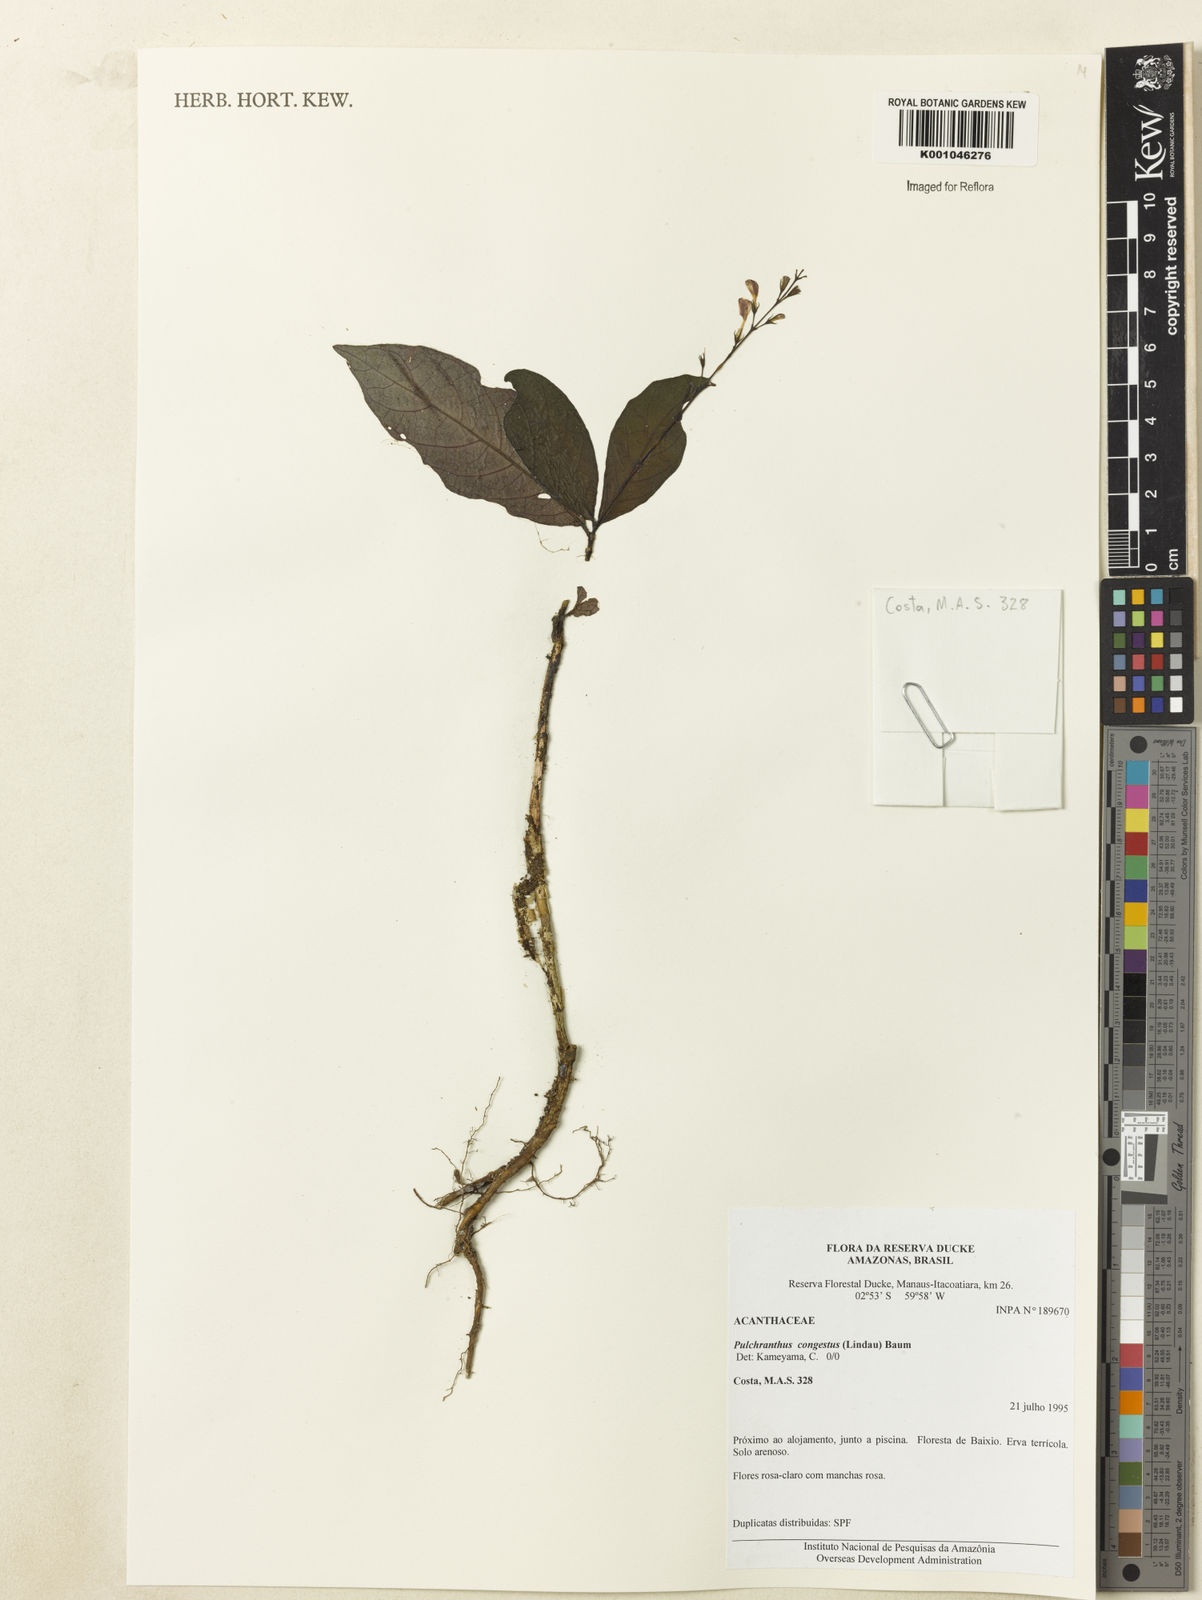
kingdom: Plantae
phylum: Tracheophyta
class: Magnoliopsida
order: Lamiales
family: Acanthaceae
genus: Pulchranthus
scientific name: Pulchranthus
